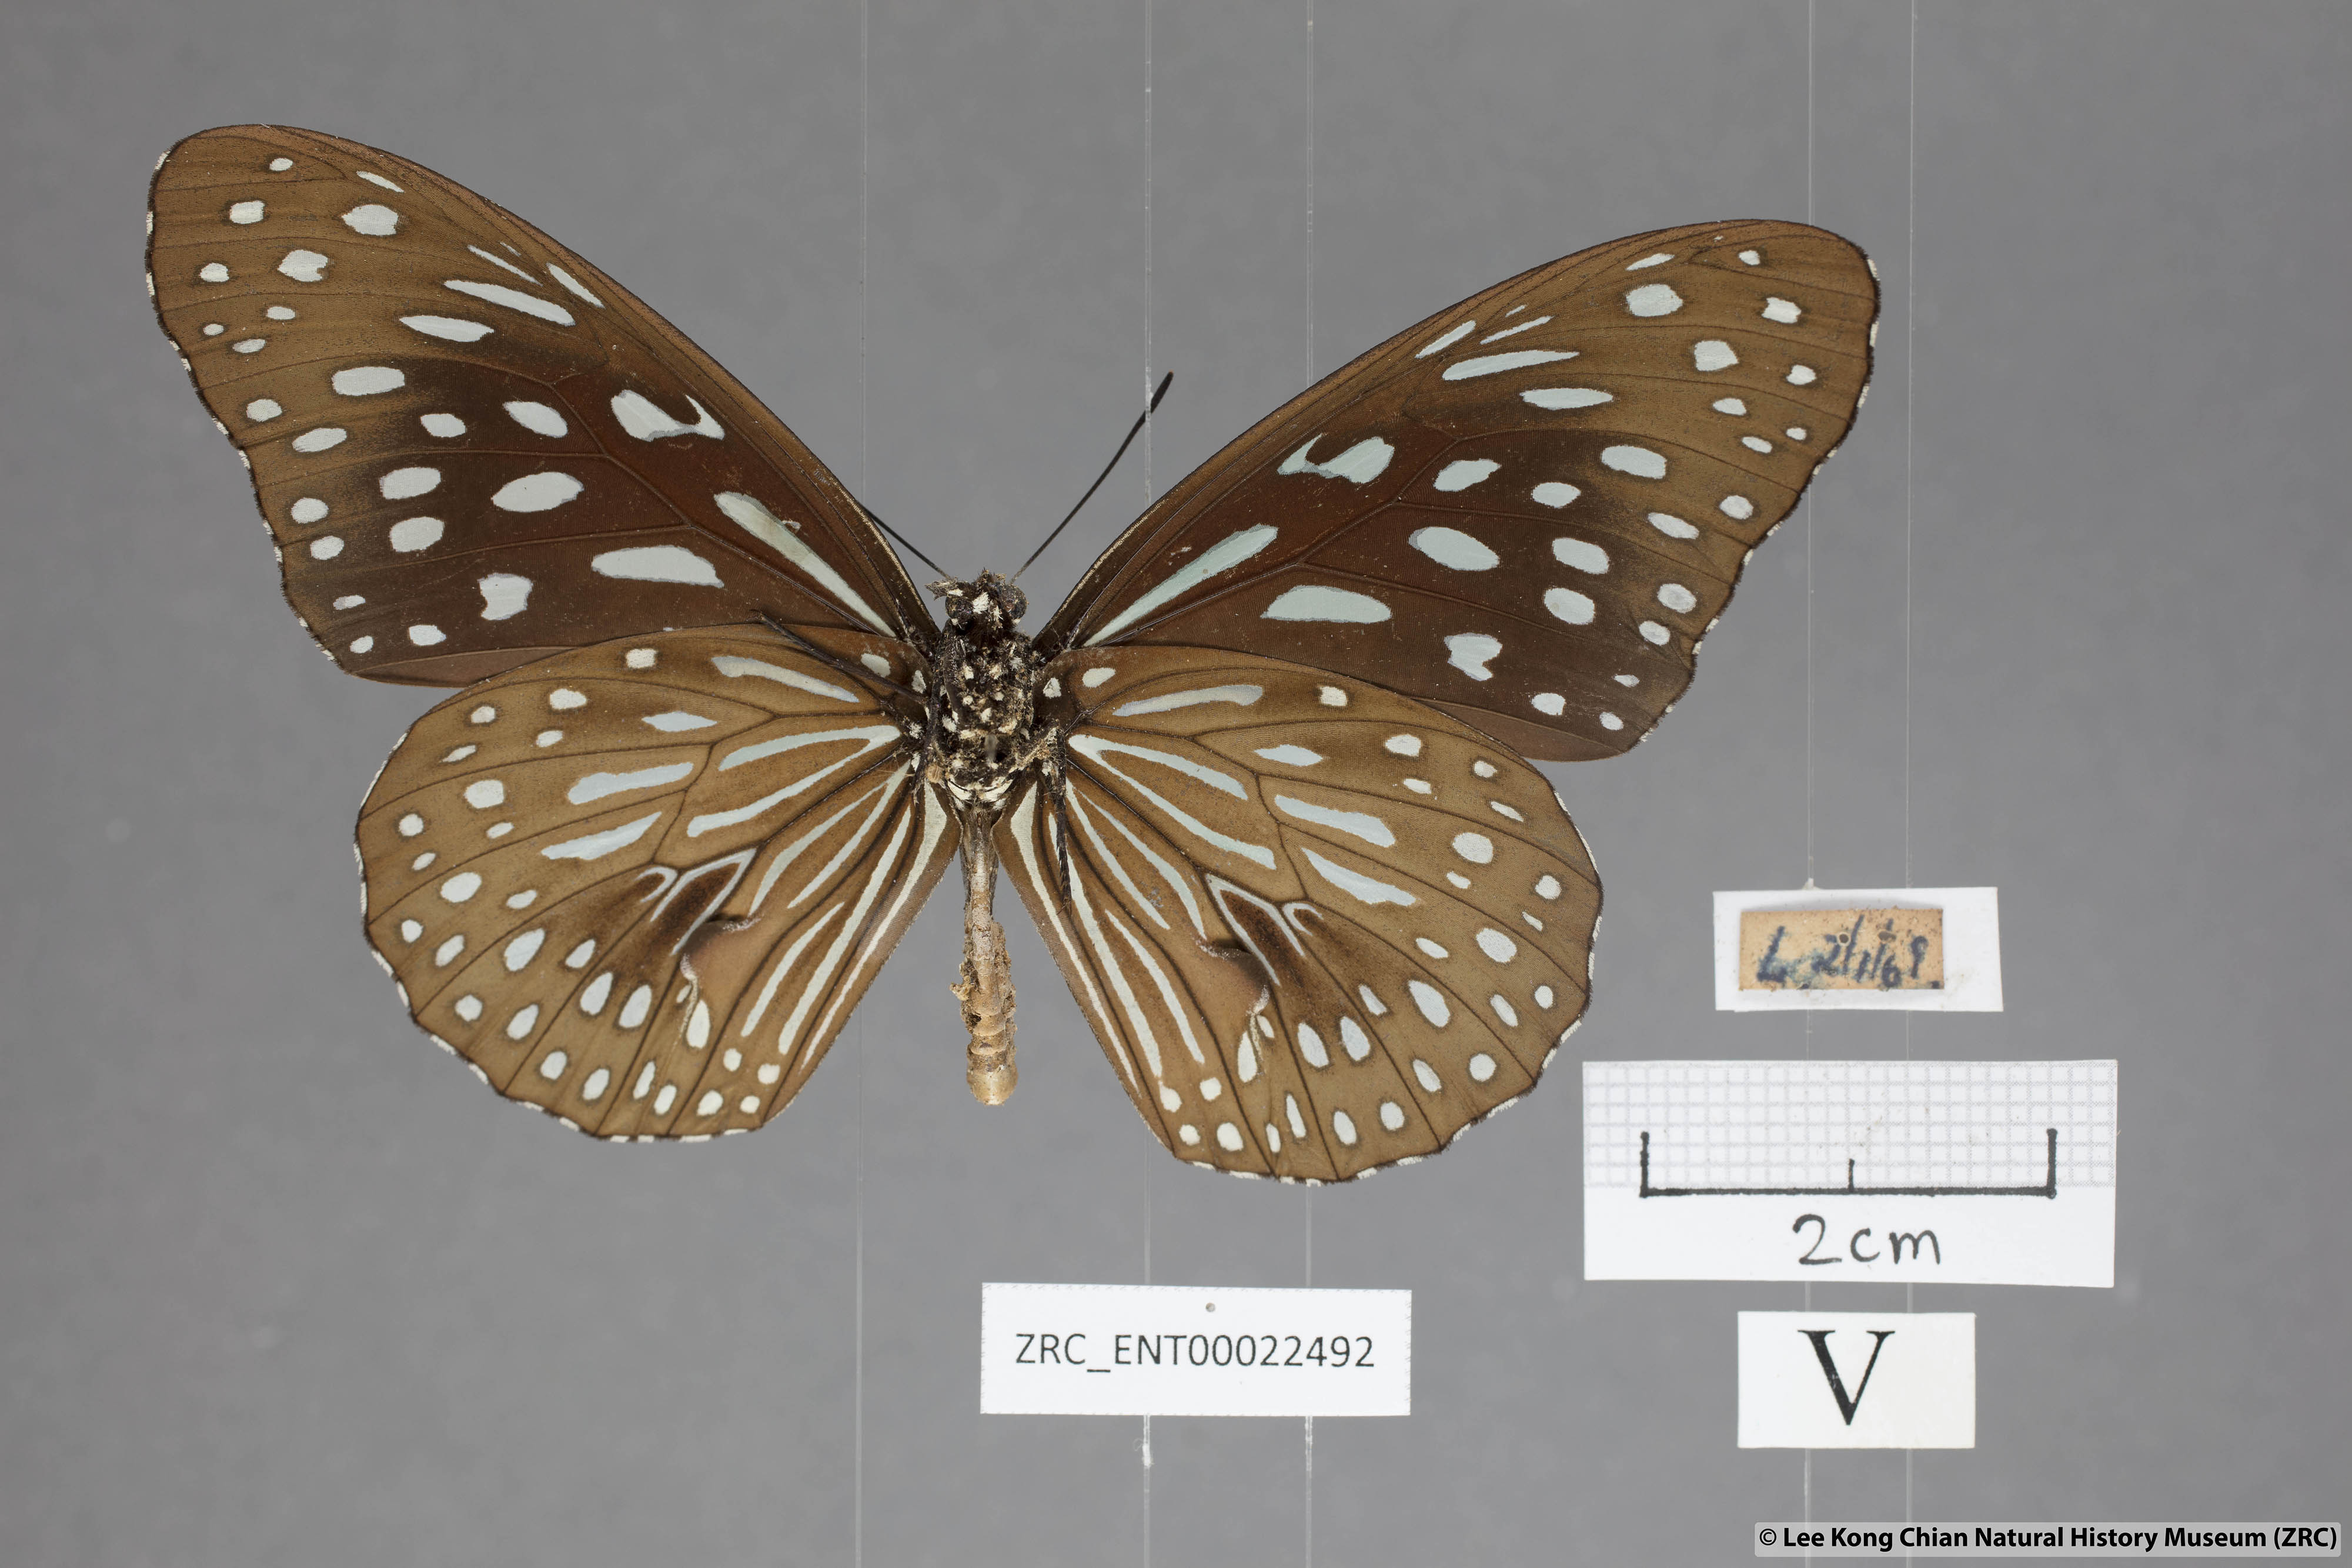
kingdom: Animalia
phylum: Arthropoda
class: Insecta
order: Lepidoptera
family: Nymphalidae
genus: Tirumala
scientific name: Tirumala septentrionis
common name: Dark blue tiger butterfly
